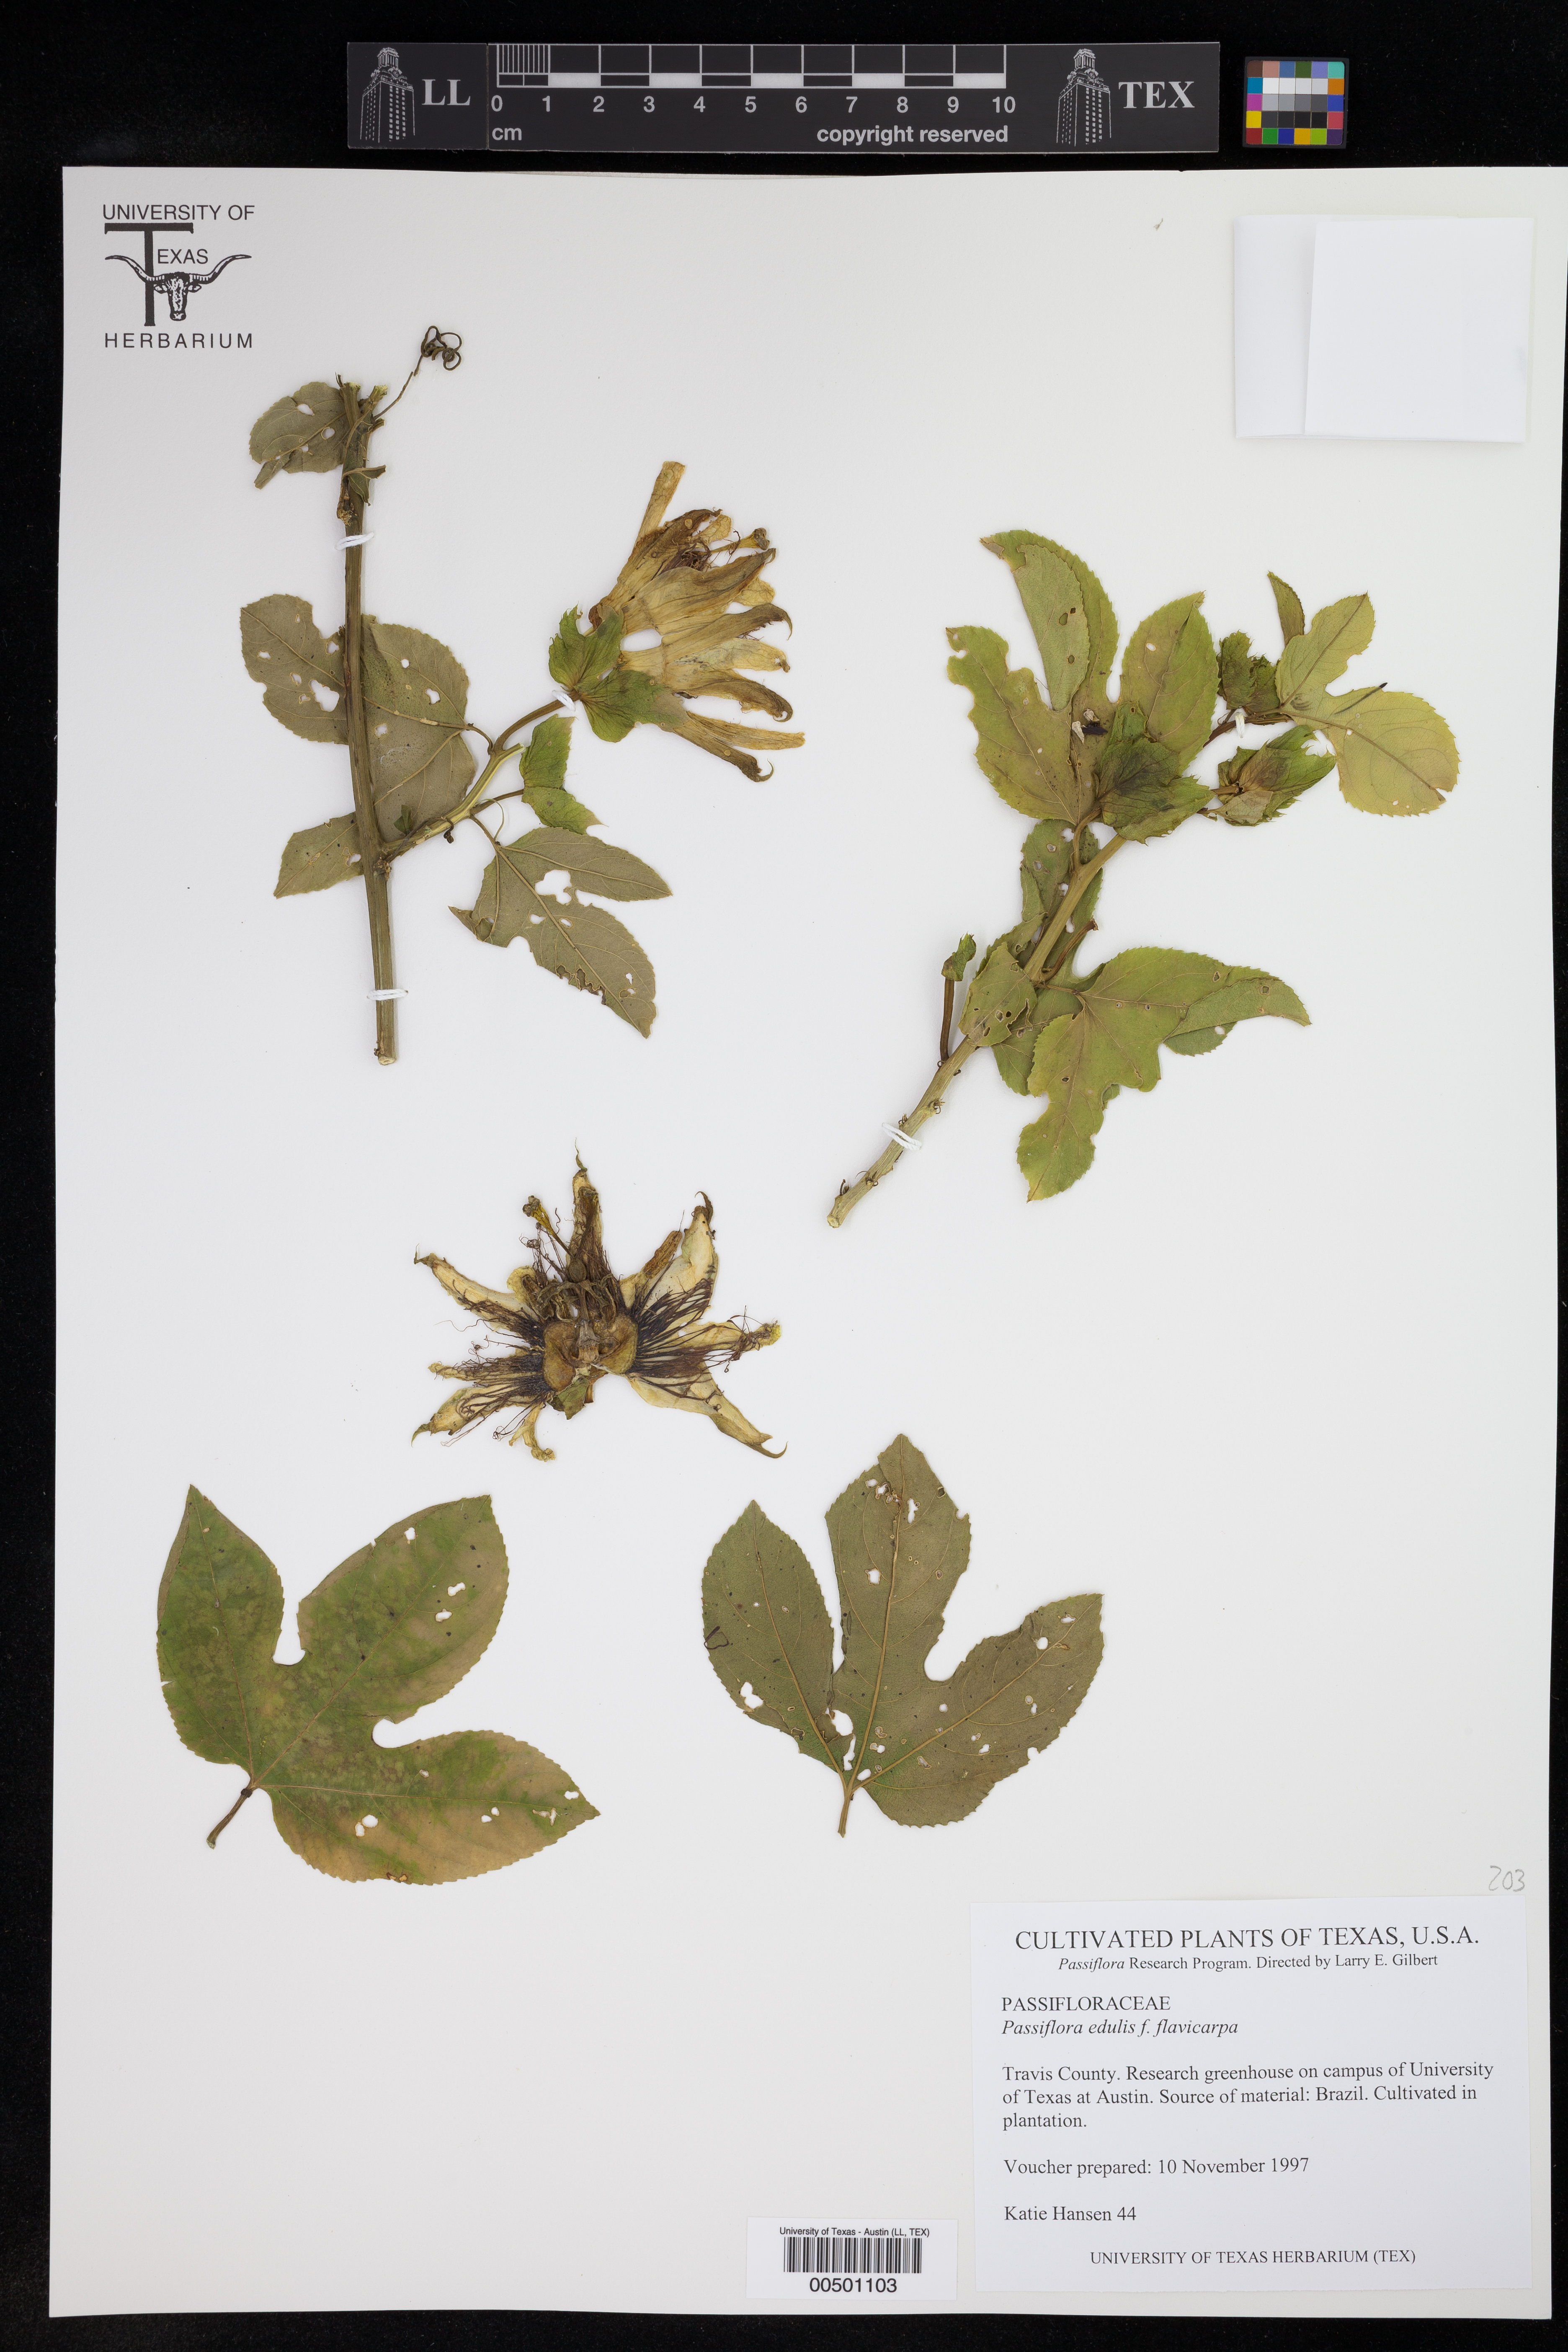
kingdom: Plantae
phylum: Tracheophyta
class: Magnoliopsida
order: Malpighiales
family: Passifloraceae
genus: Passiflora
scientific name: Passiflora edulis
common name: Purple granadilla
